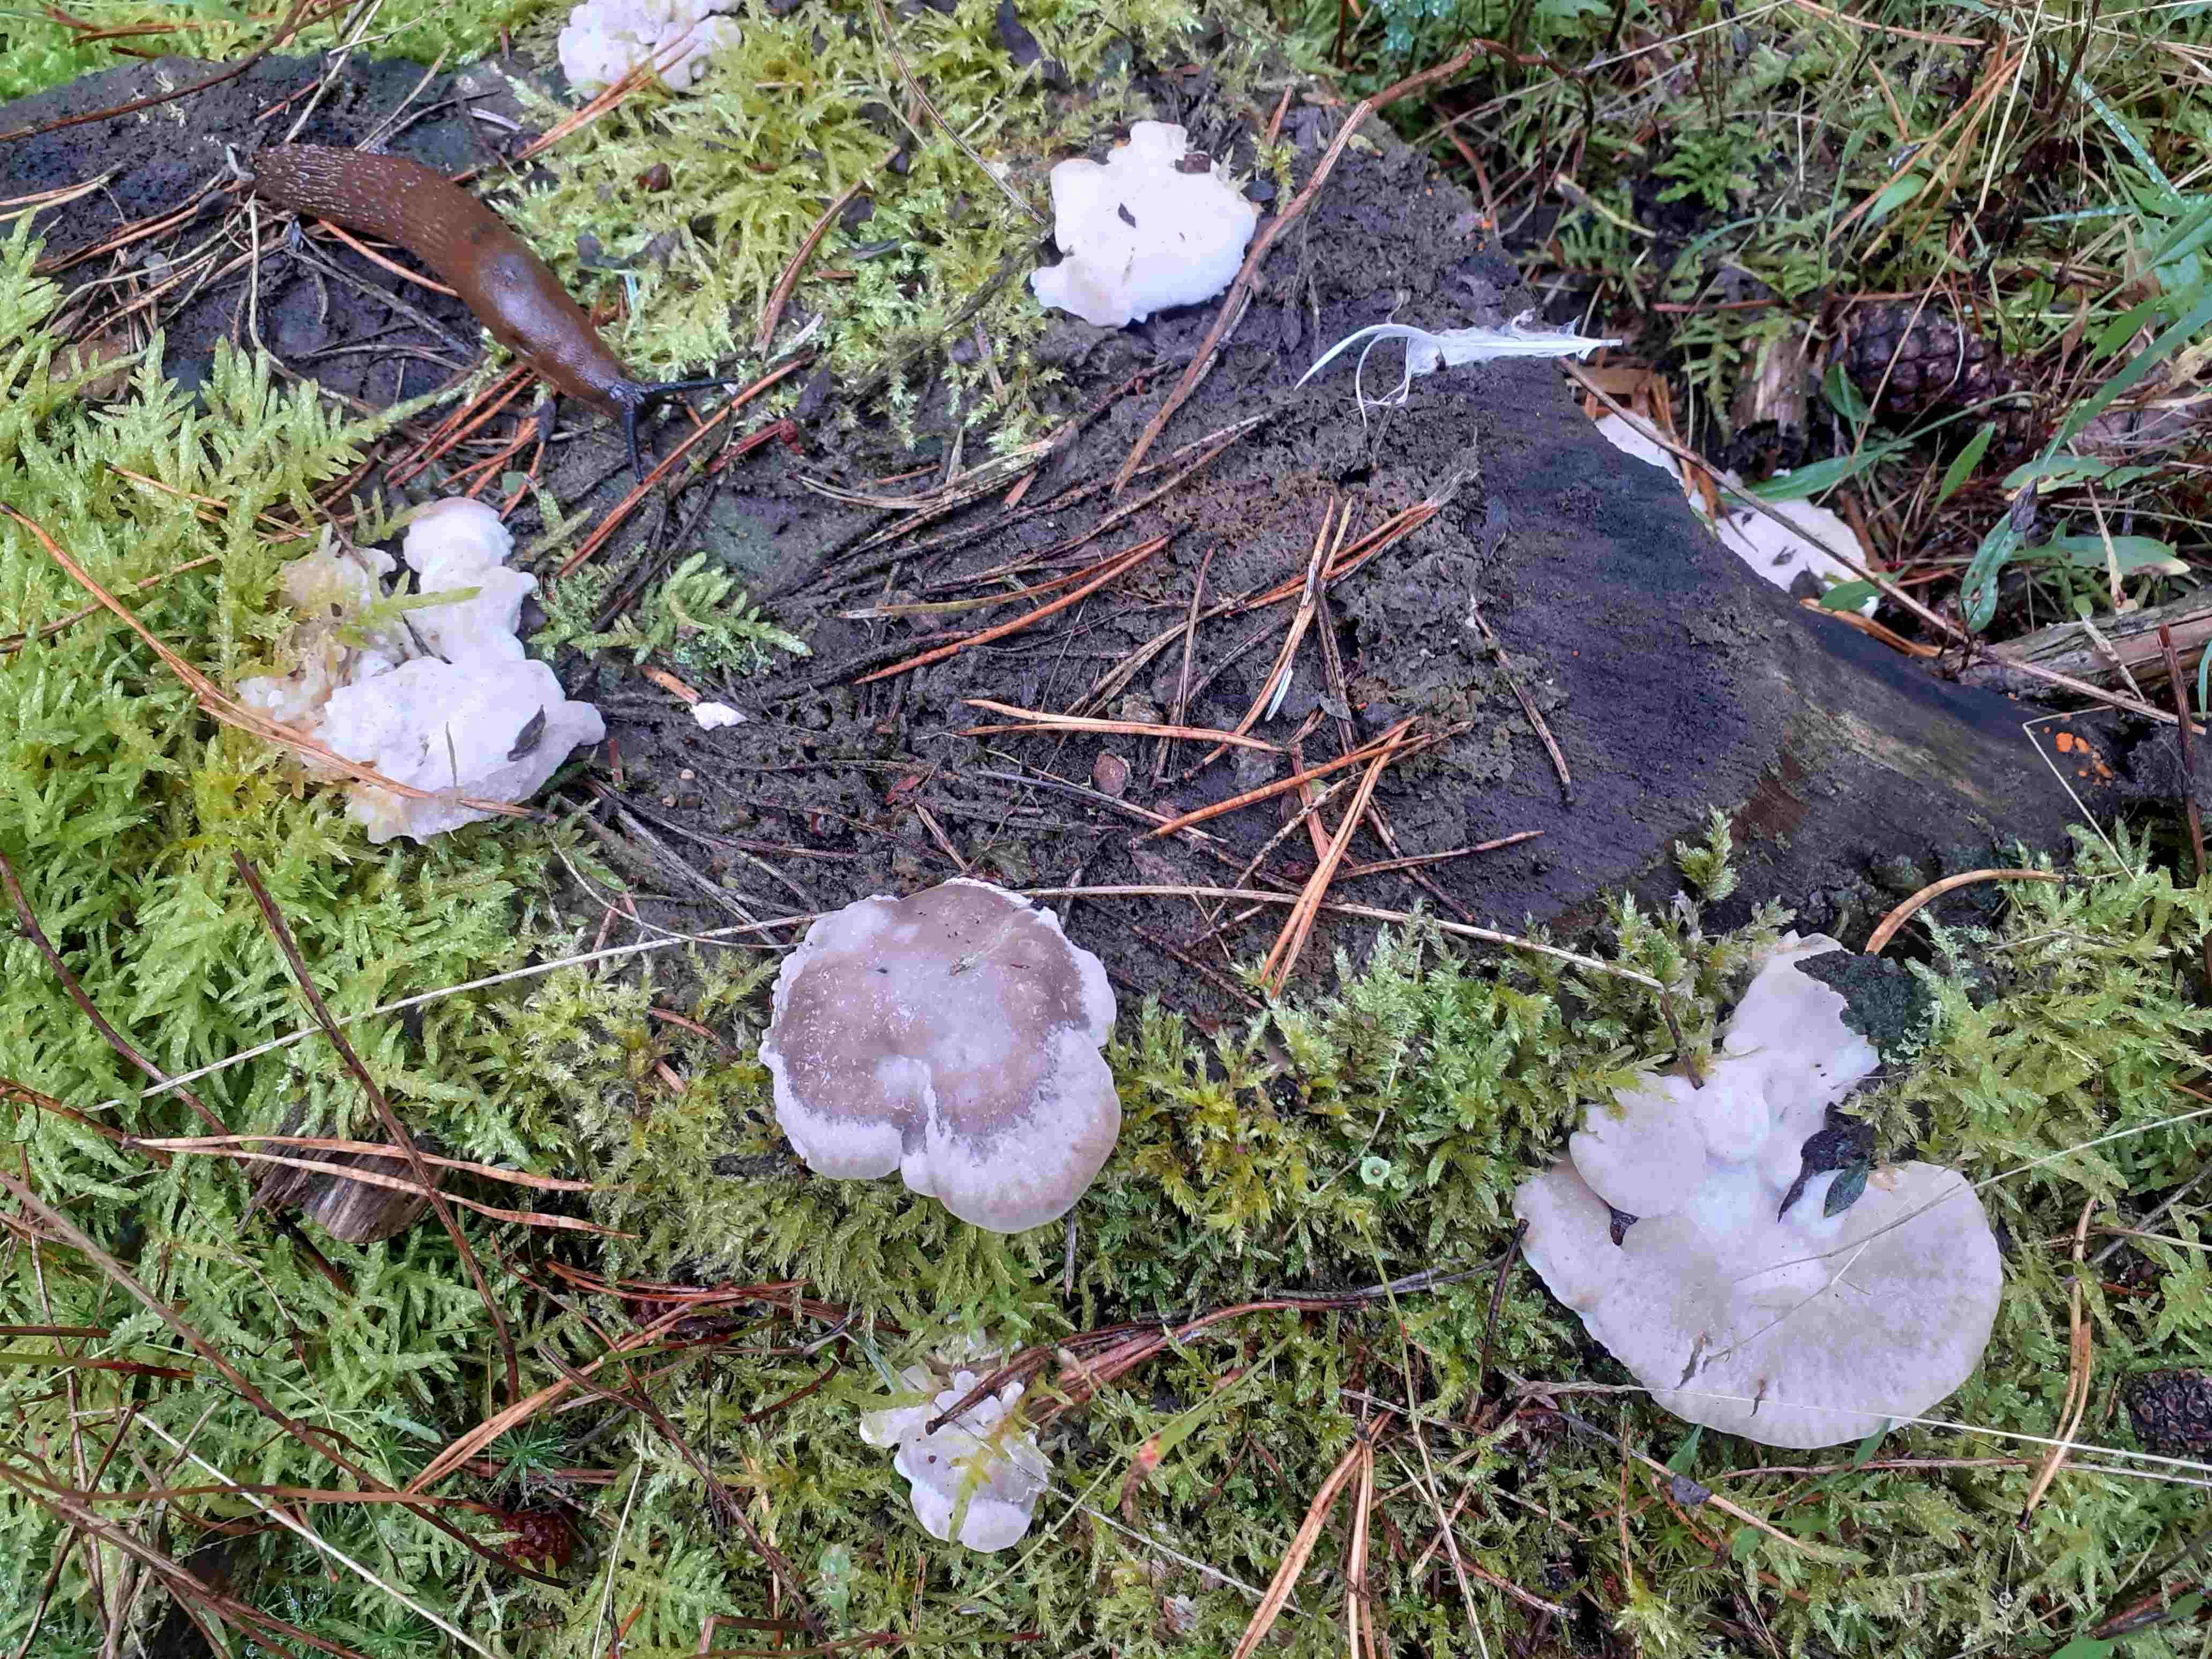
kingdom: Fungi
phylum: Basidiomycota
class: Agaricomycetes
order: Polyporales
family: Incrustoporiaceae
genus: Tyromyces
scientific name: Tyromyces lacteus
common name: mælkehvid kødporesvamp
